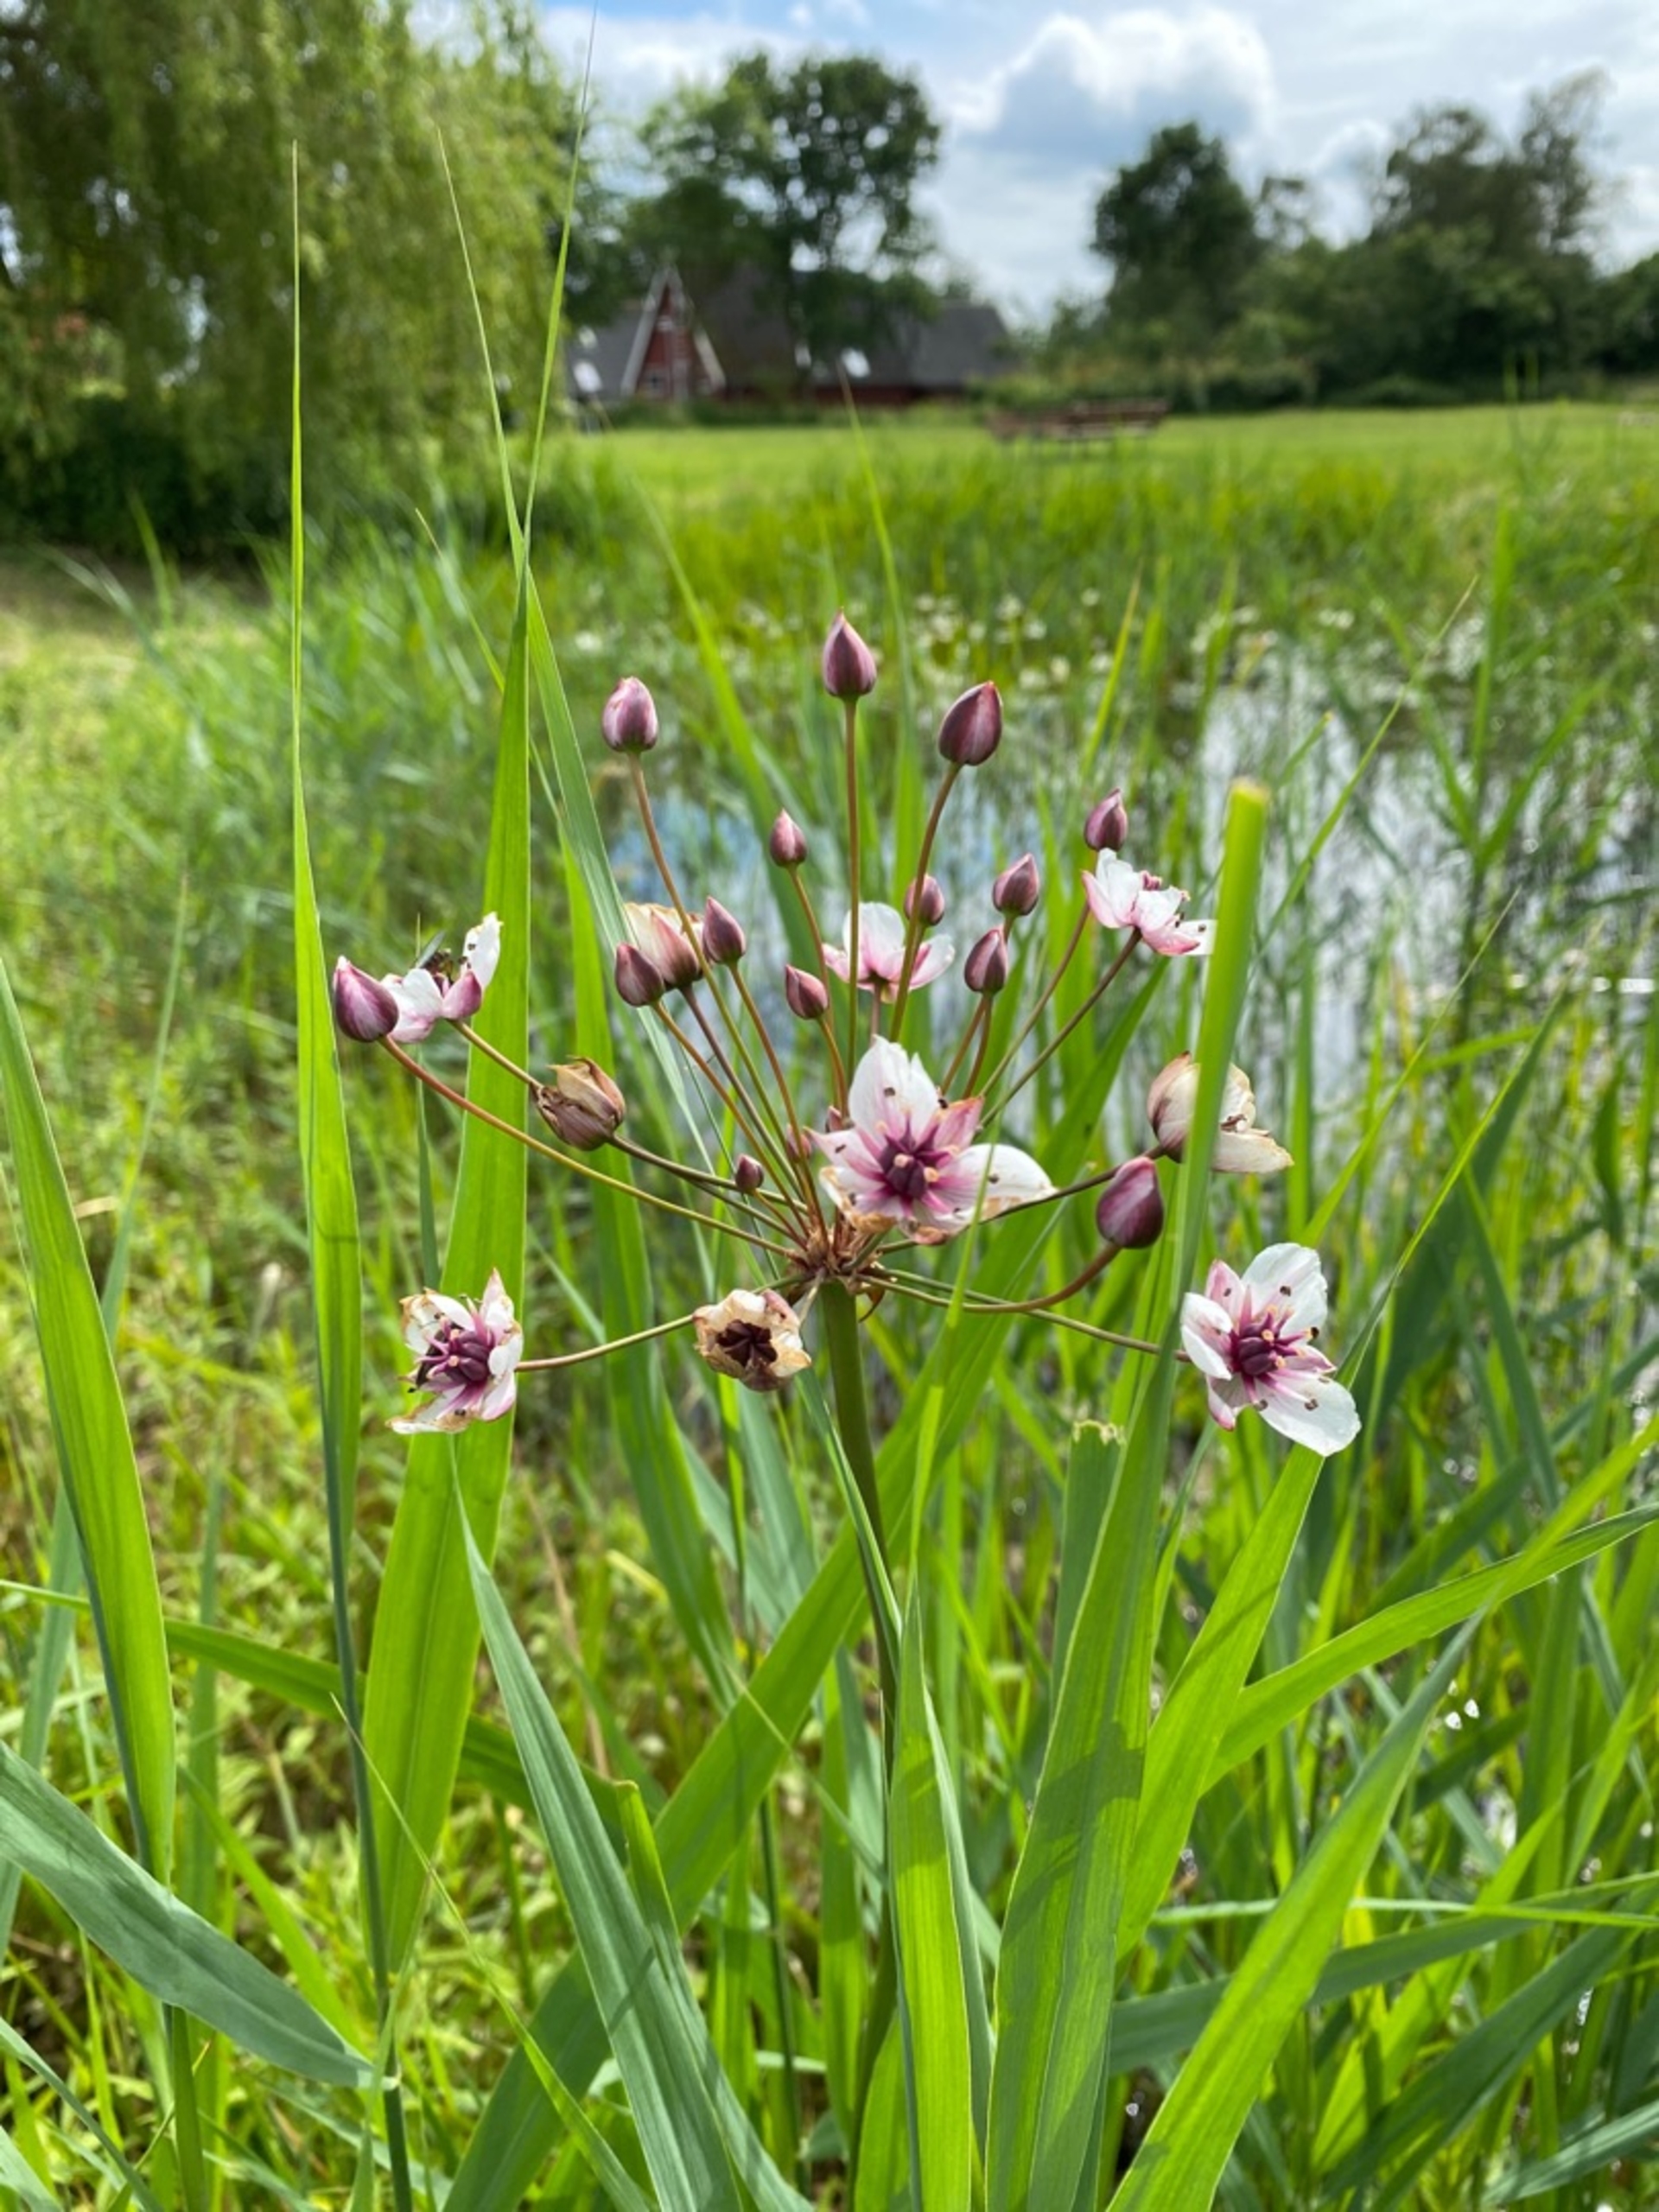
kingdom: Plantae
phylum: Tracheophyta
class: Liliopsida
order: Alismatales
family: Butomaceae
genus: Butomus
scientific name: Butomus umbellatus
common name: Brudelys
